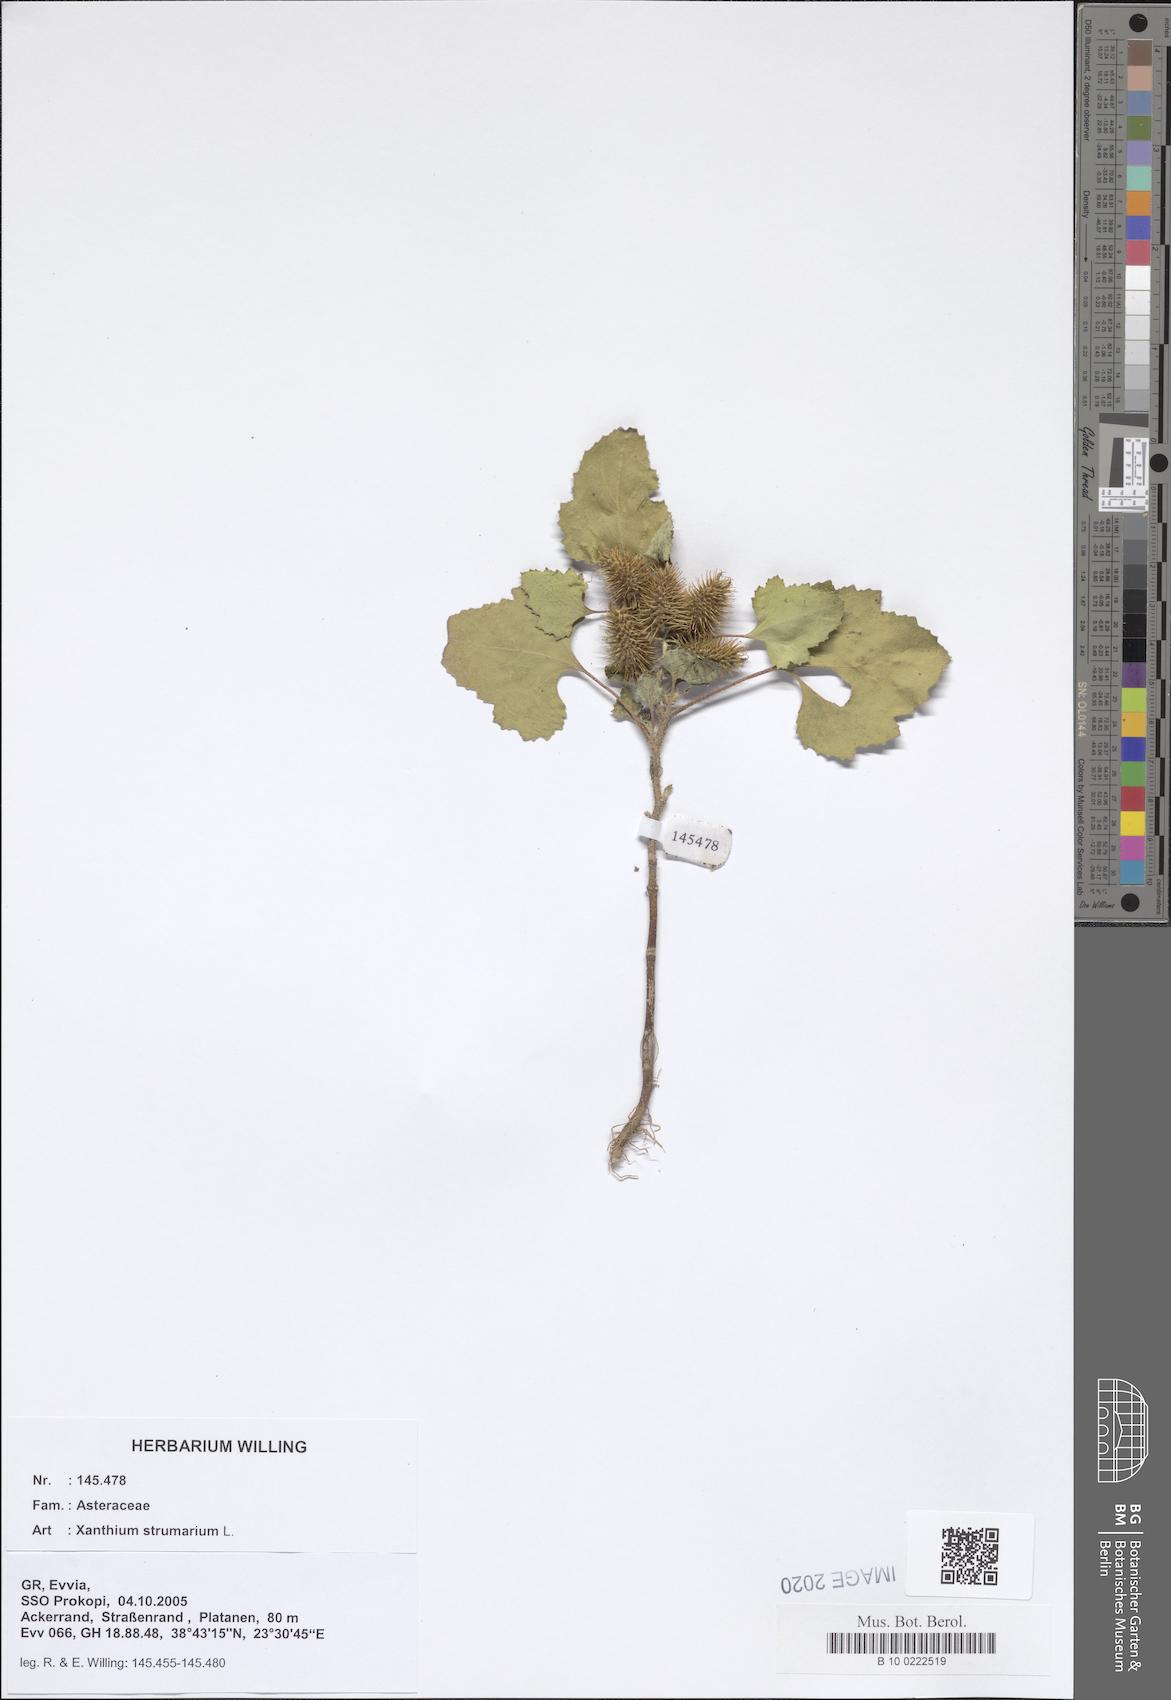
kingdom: Plantae
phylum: Tracheophyta
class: Magnoliopsida
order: Asterales
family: Asteraceae
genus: Xanthium
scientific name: Xanthium strumarium
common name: Rough cocklebur
